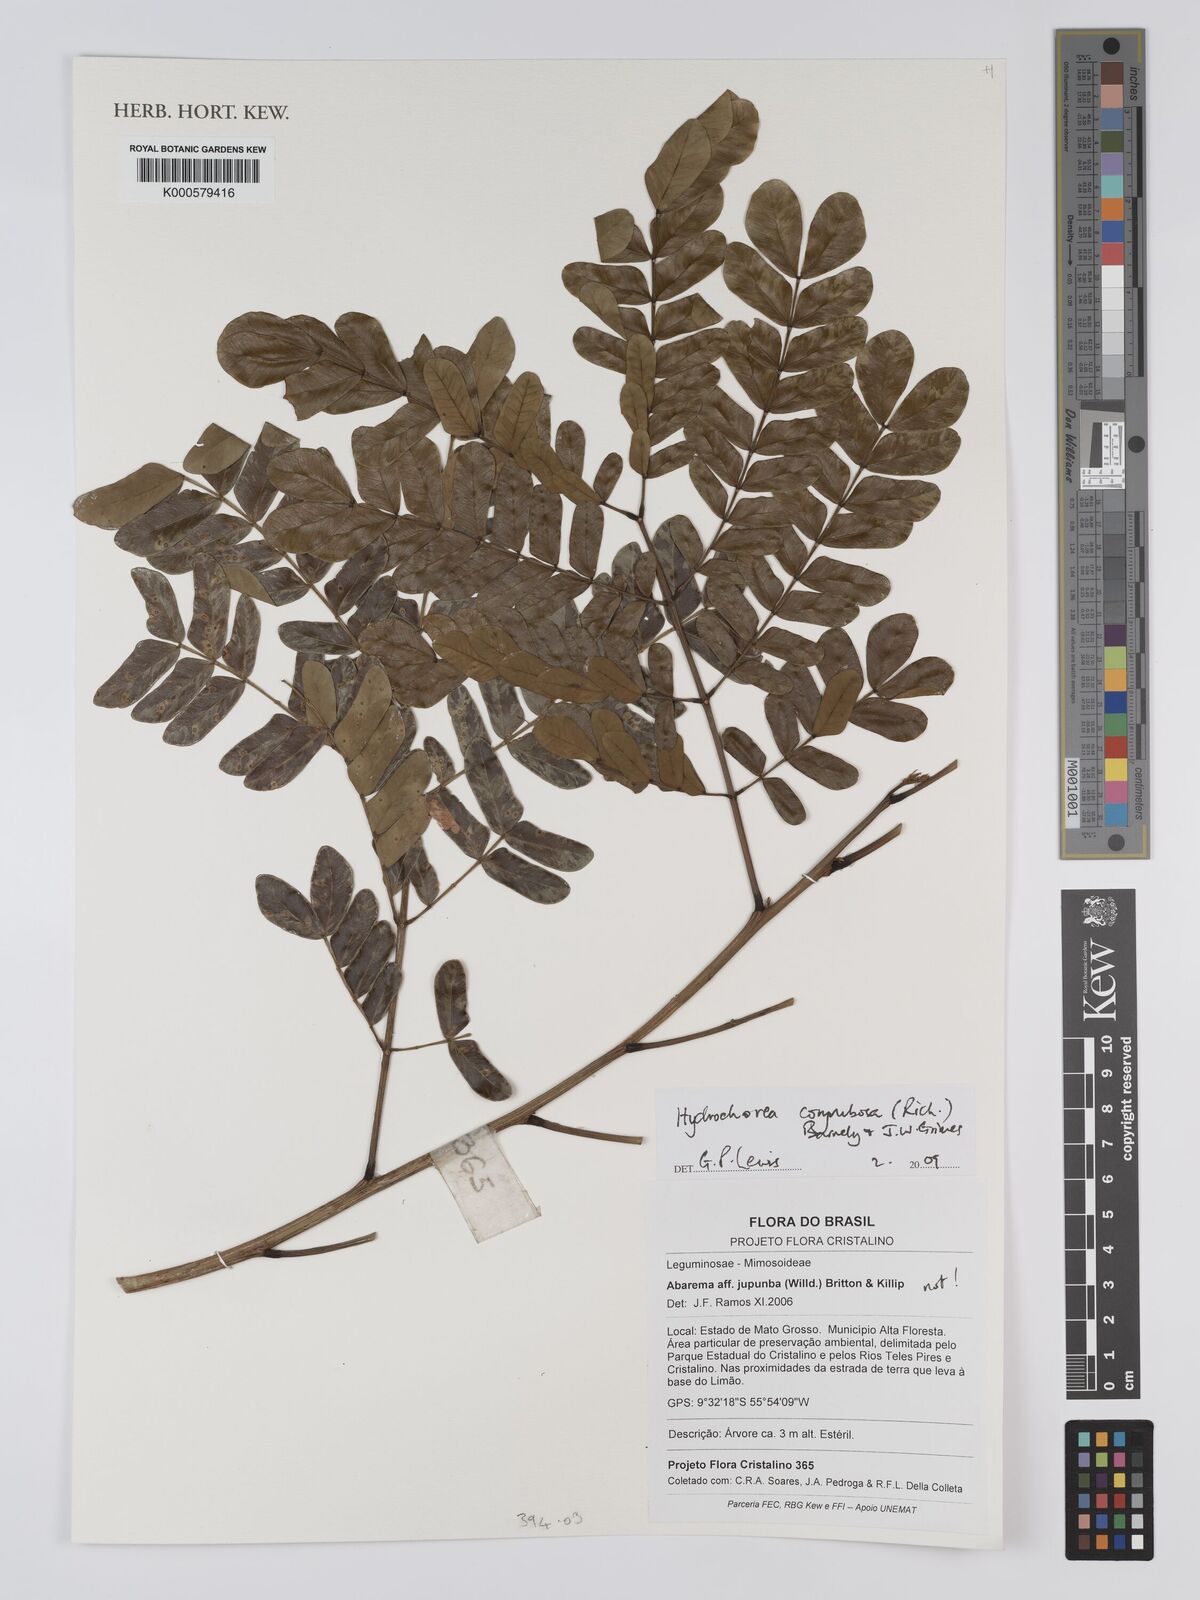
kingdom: Plantae
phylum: Tracheophyta
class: Magnoliopsida
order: Fabales
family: Fabaceae
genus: Hydrochorea
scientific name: Hydrochorea corymbosa
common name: Swamp manariballi
